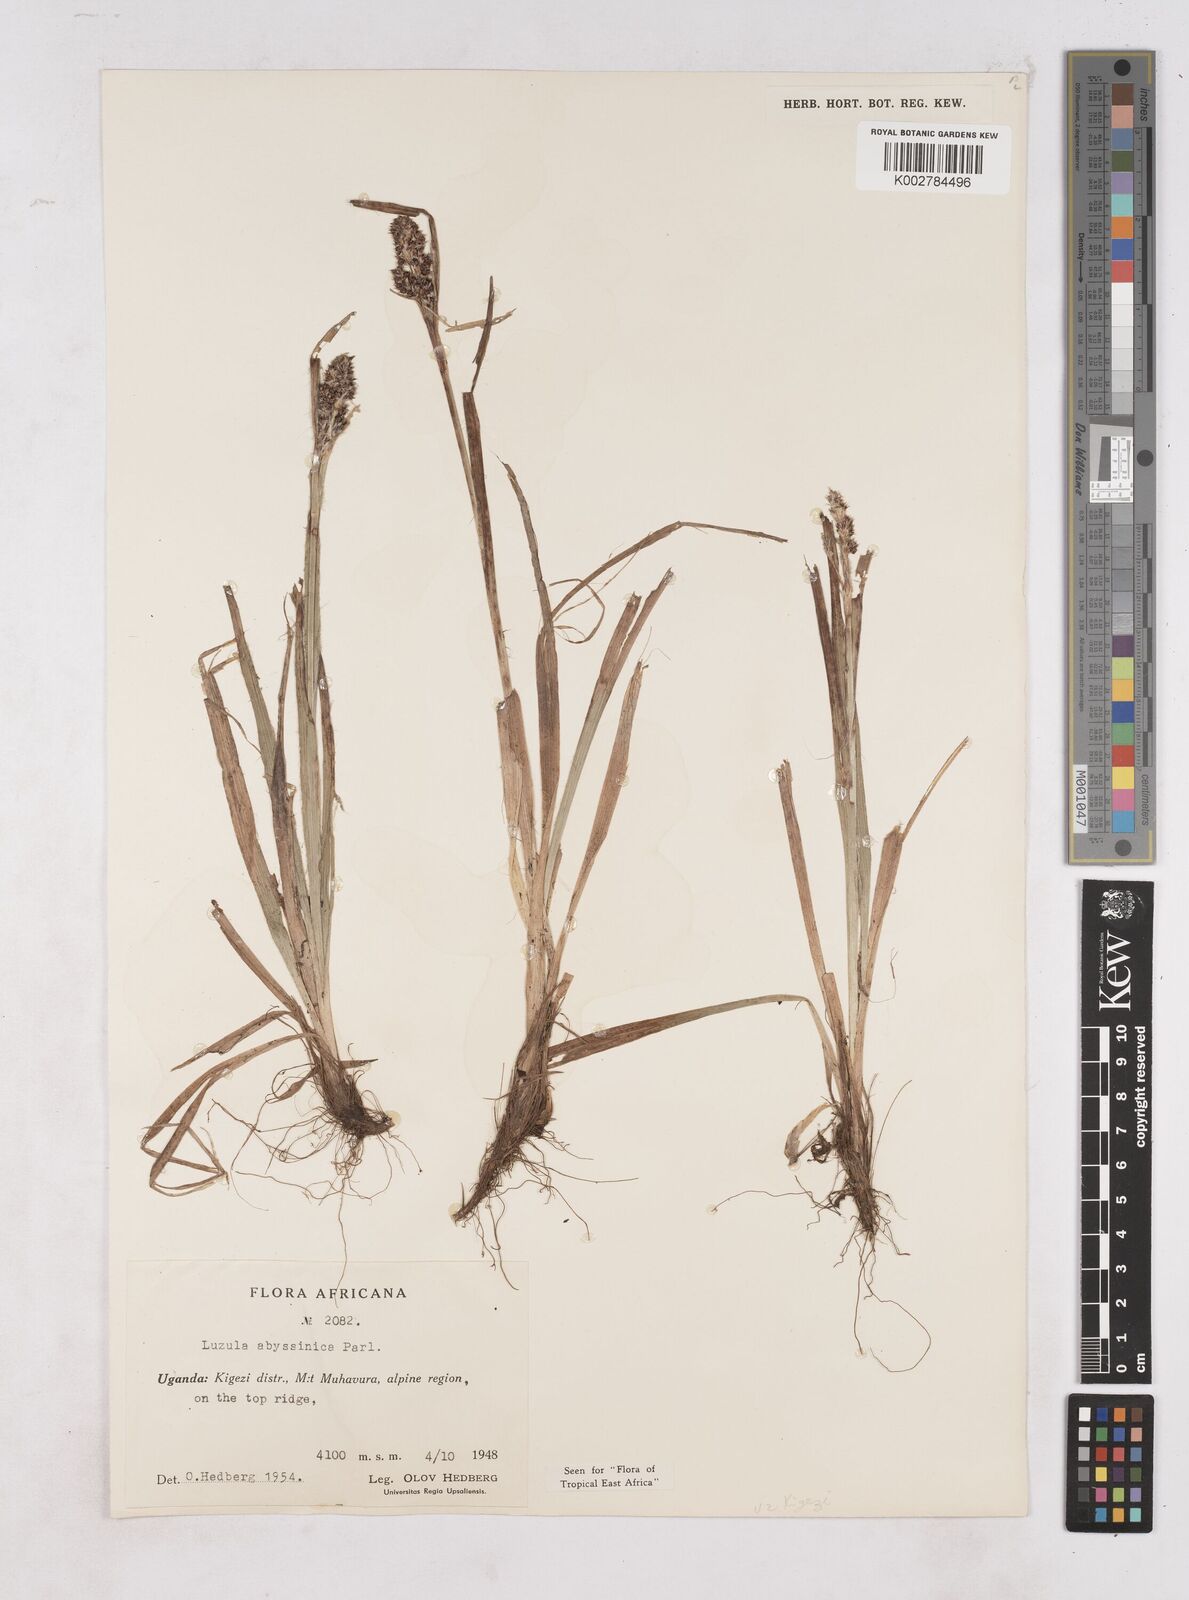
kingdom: Plantae
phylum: Tracheophyta
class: Liliopsida
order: Poales
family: Juncaceae
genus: Luzula
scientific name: Luzula abyssinica
